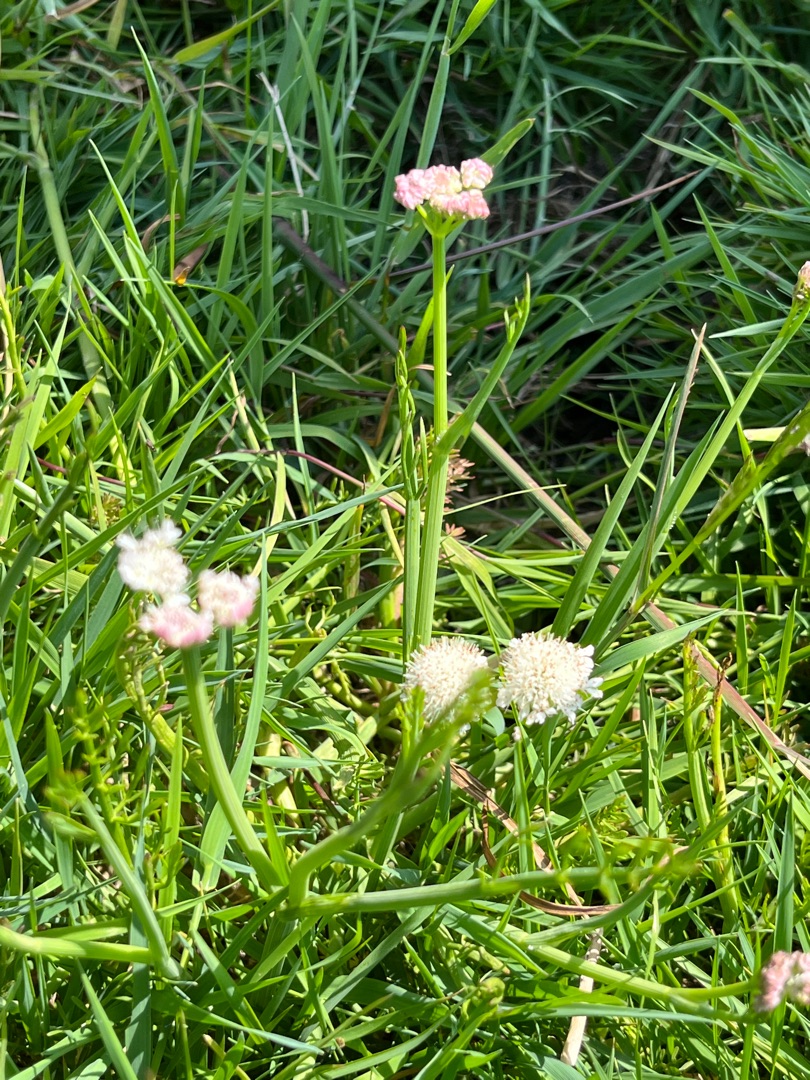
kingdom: Plantae
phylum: Tracheophyta
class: Magnoliopsida
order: Apiales
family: Apiaceae
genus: Oenanthe
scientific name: Oenanthe fistulosa
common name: Vand-klaseskærm
